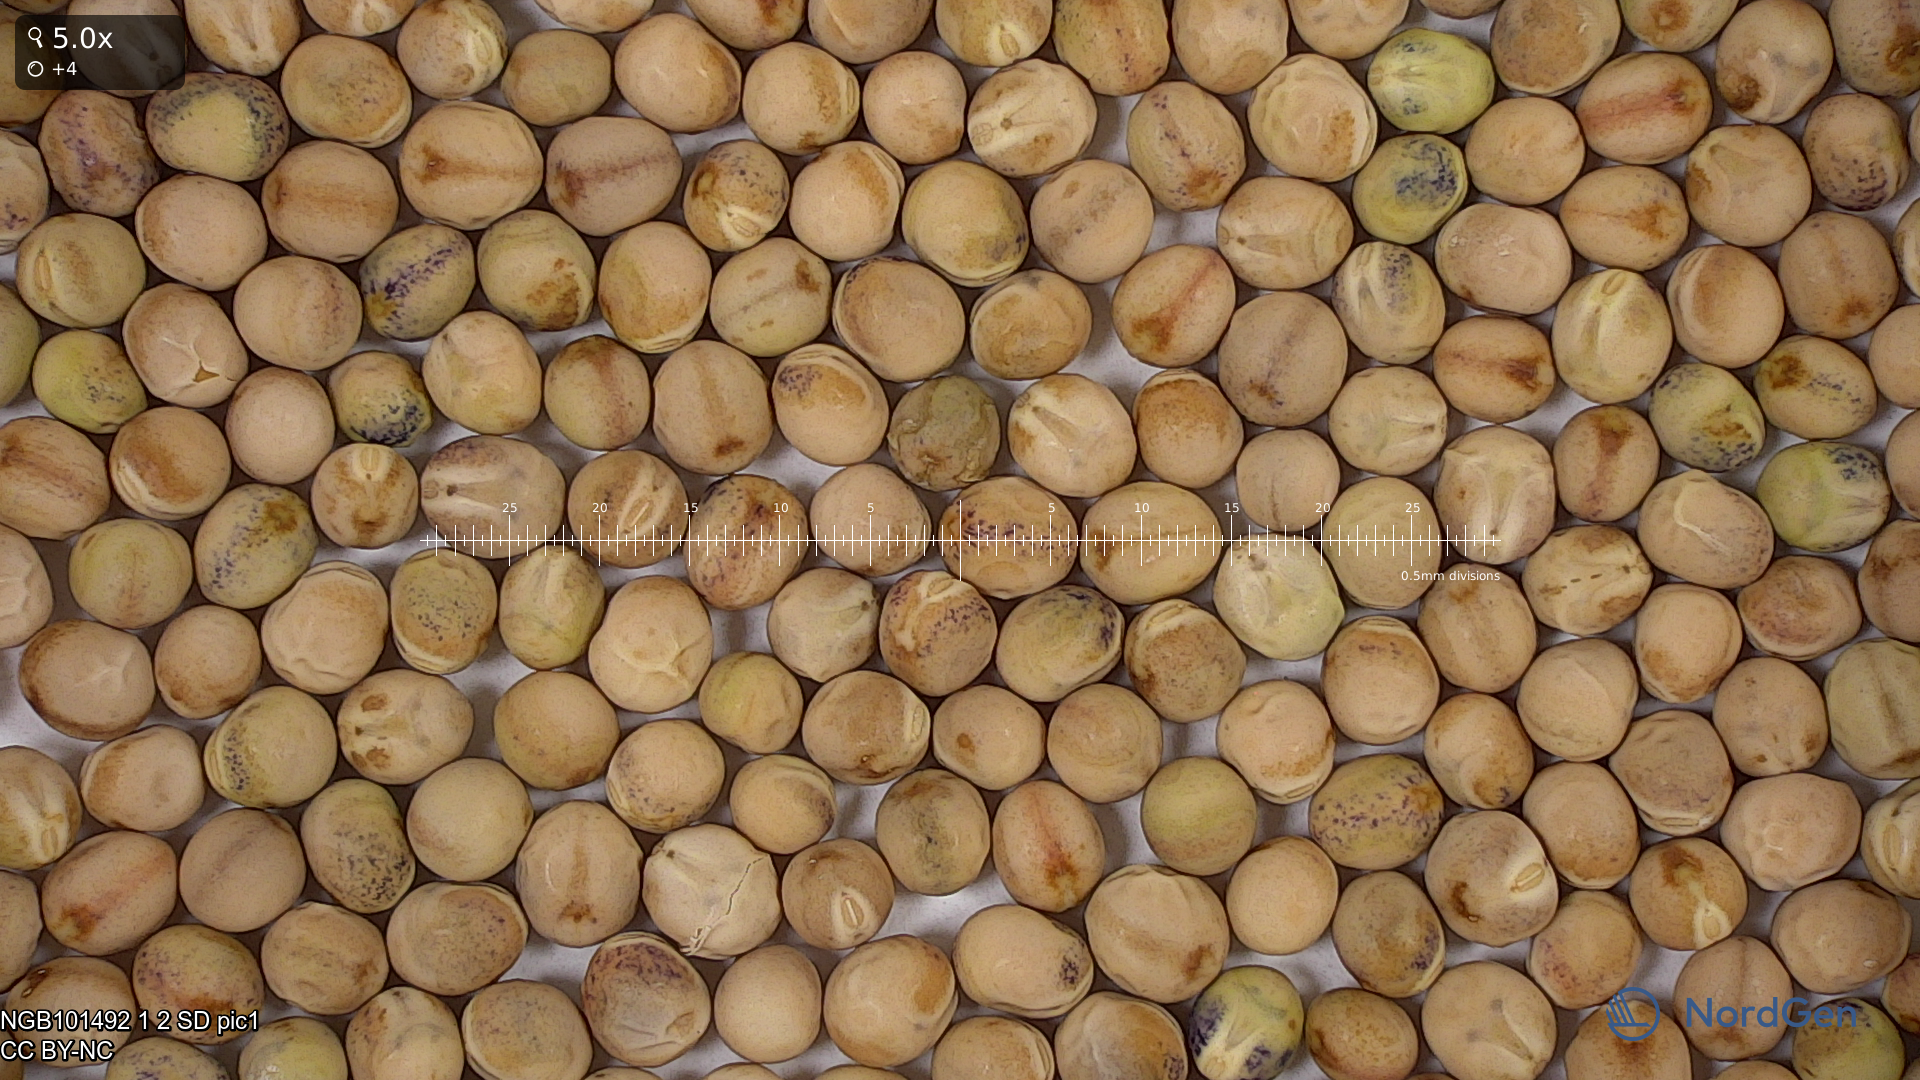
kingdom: Plantae
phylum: Tracheophyta
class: Magnoliopsida
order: Fabales
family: Fabaceae
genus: Lathyrus
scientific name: Lathyrus oleraceus
